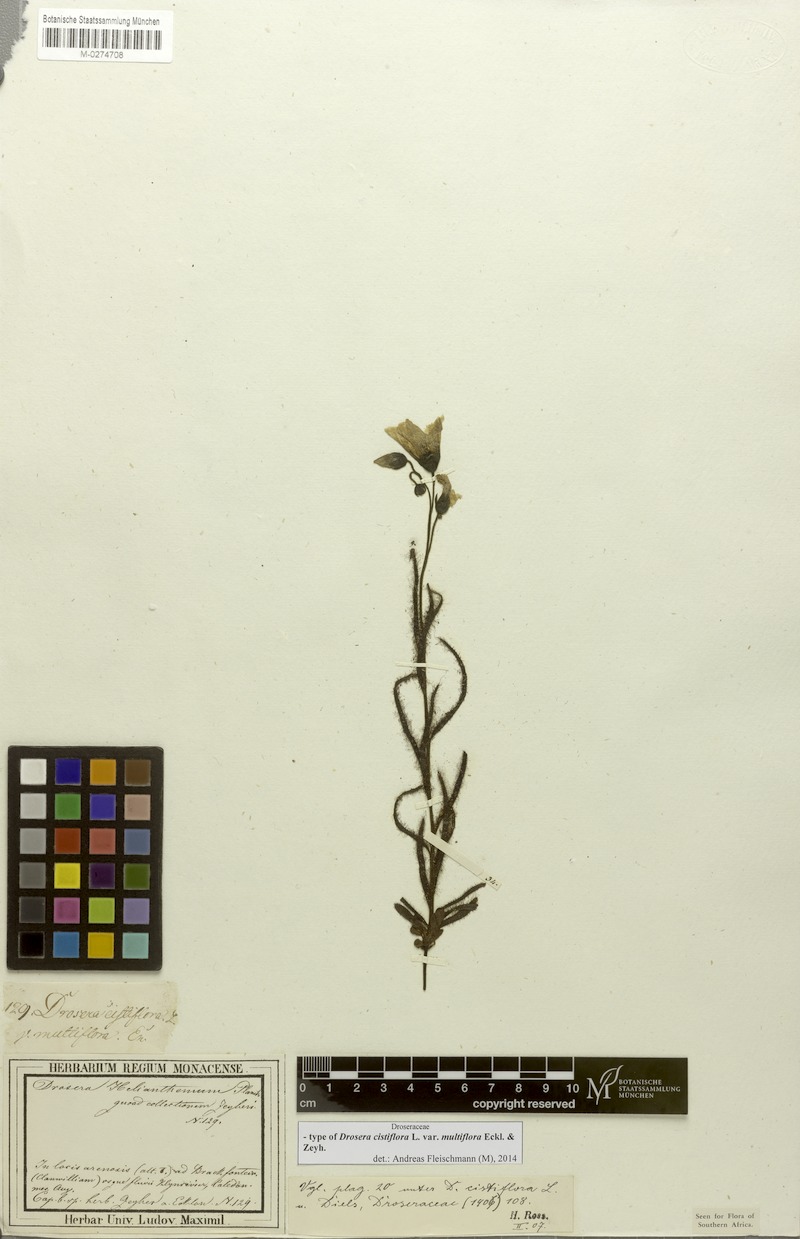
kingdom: Plantae
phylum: Tracheophyta
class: Magnoliopsida
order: Caryophyllales
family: Droseraceae
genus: Drosera
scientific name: Drosera cistiflora
